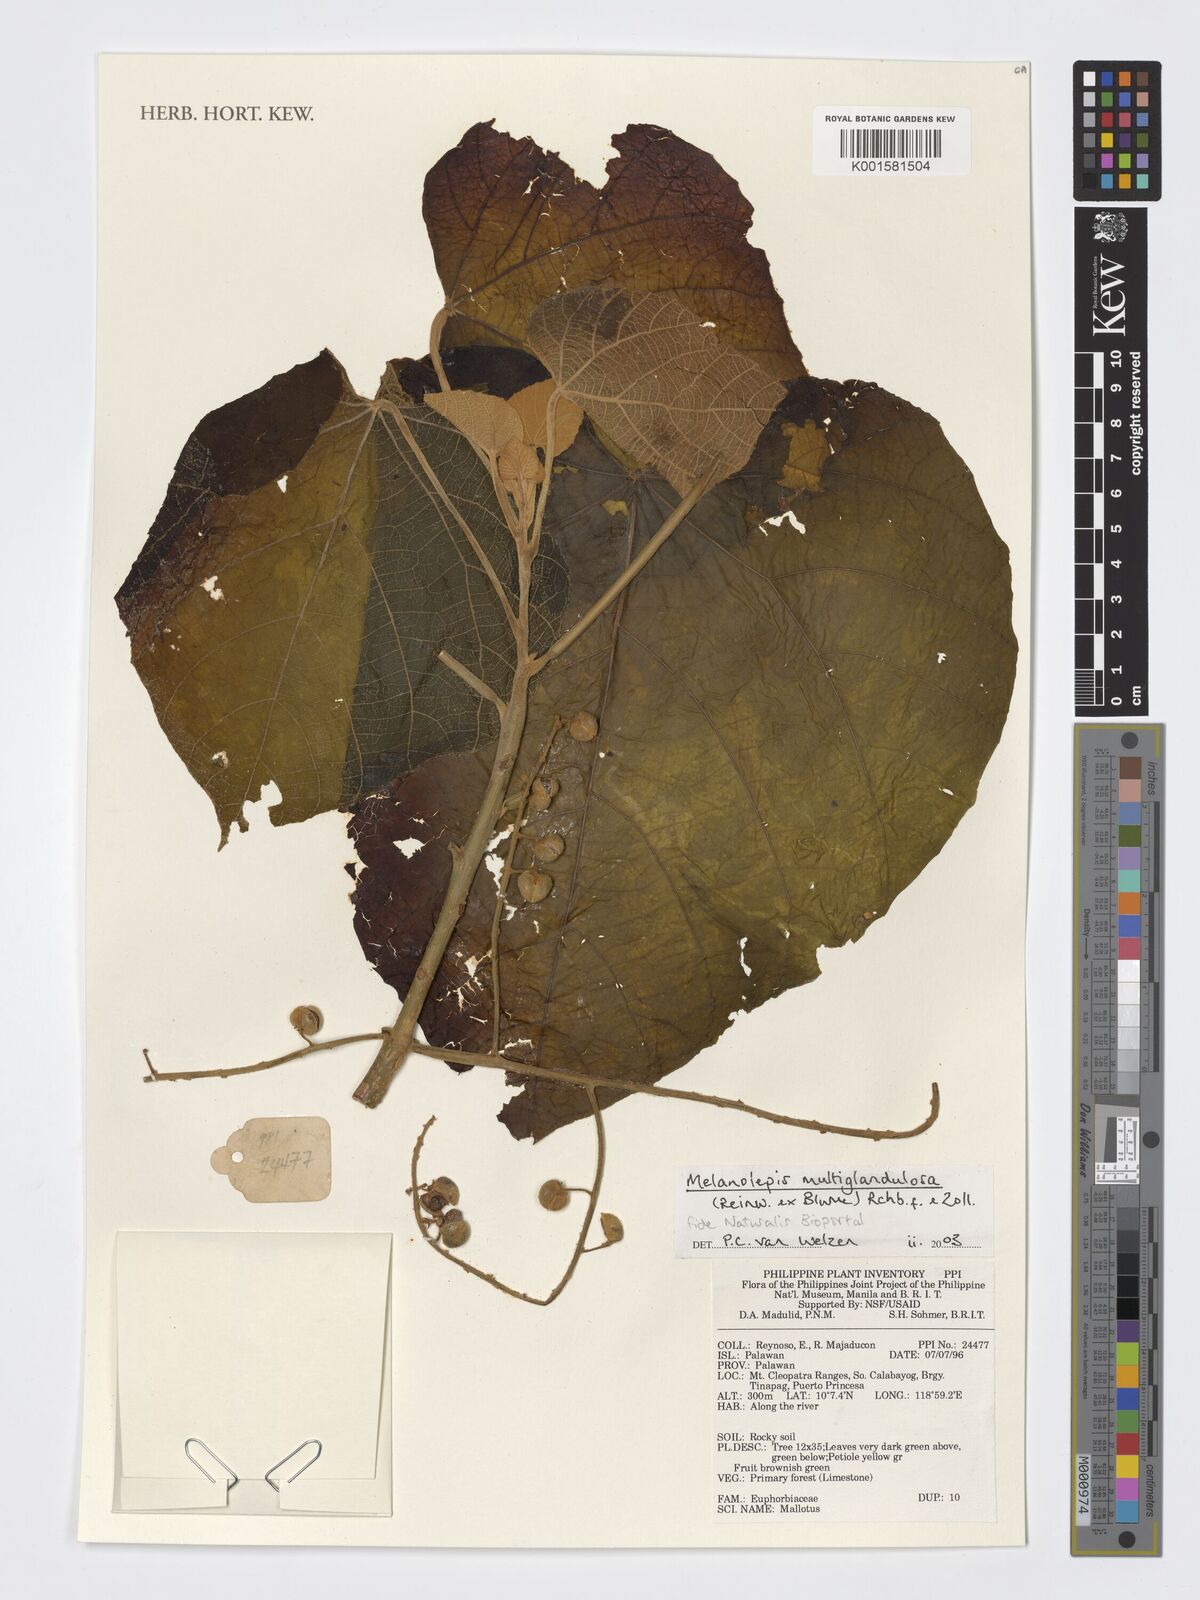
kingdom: Plantae
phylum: Tracheophyta
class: Magnoliopsida
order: Malpighiales
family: Euphorbiaceae
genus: Melanolepis
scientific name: Melanolepis multiglandulosa
